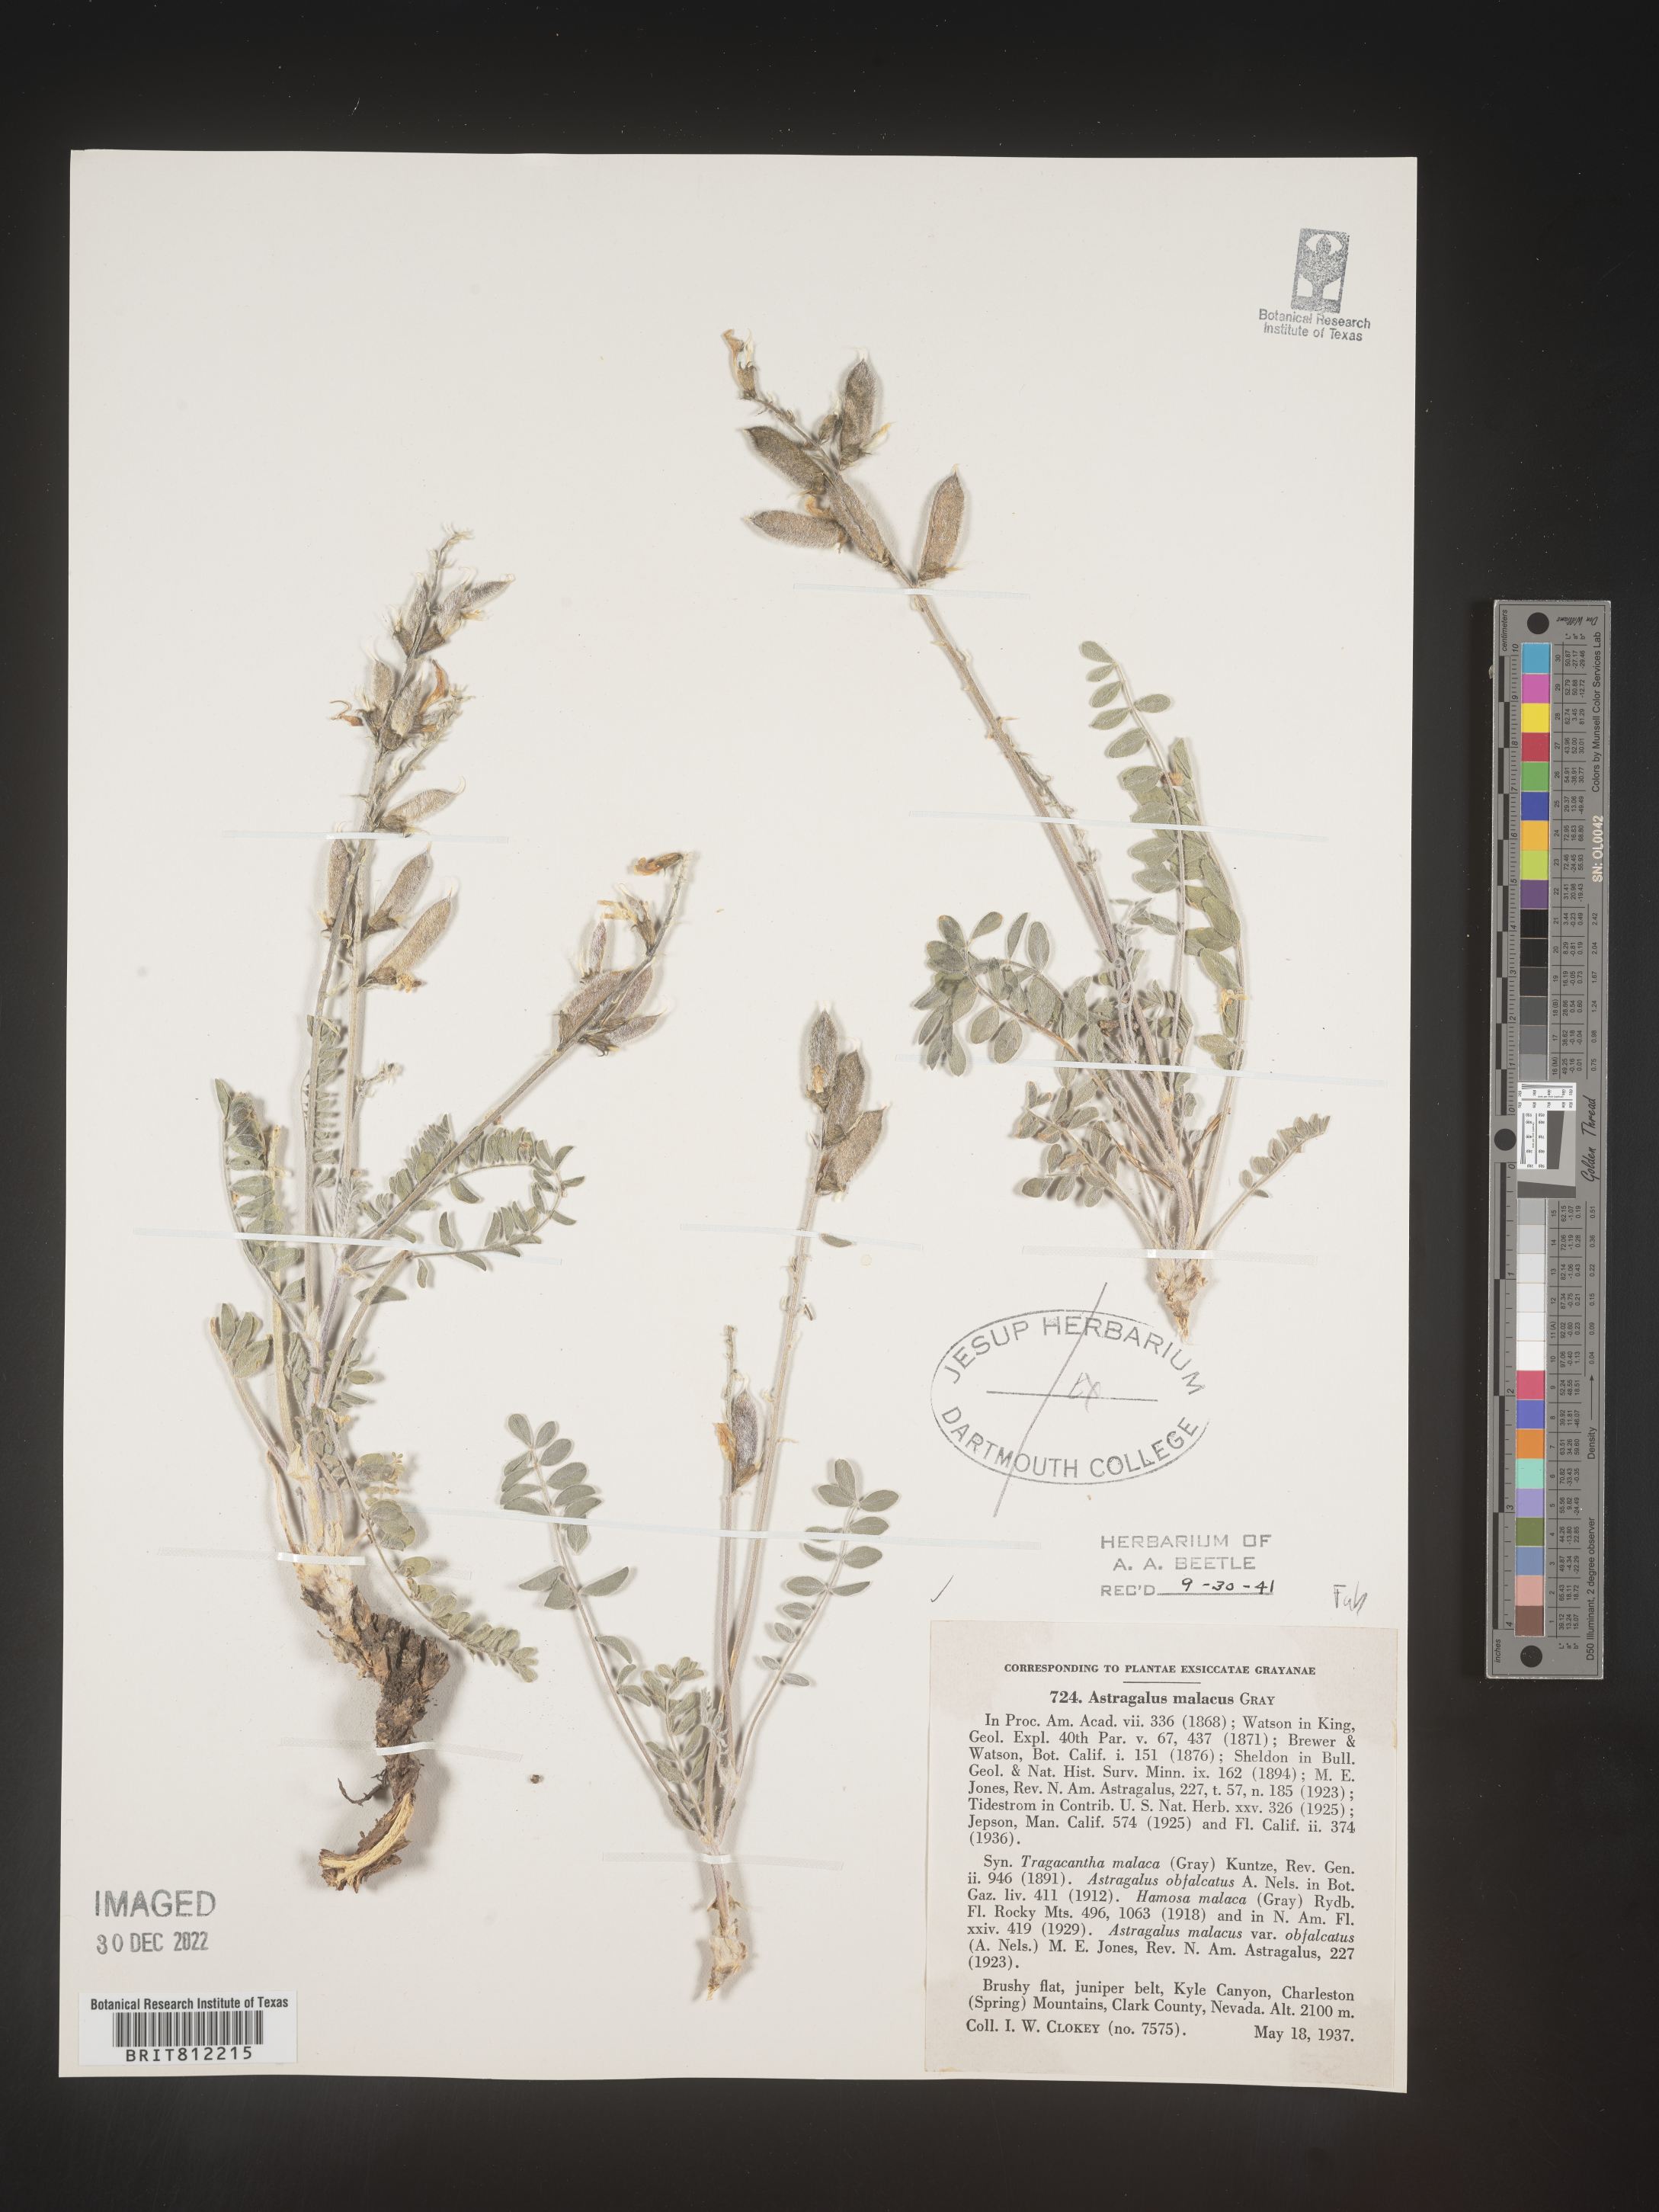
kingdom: Plantae
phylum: Tracheophyta
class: Magnoliopsida
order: Fabales
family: Fabaceae
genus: Astragalus
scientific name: Astragalus
